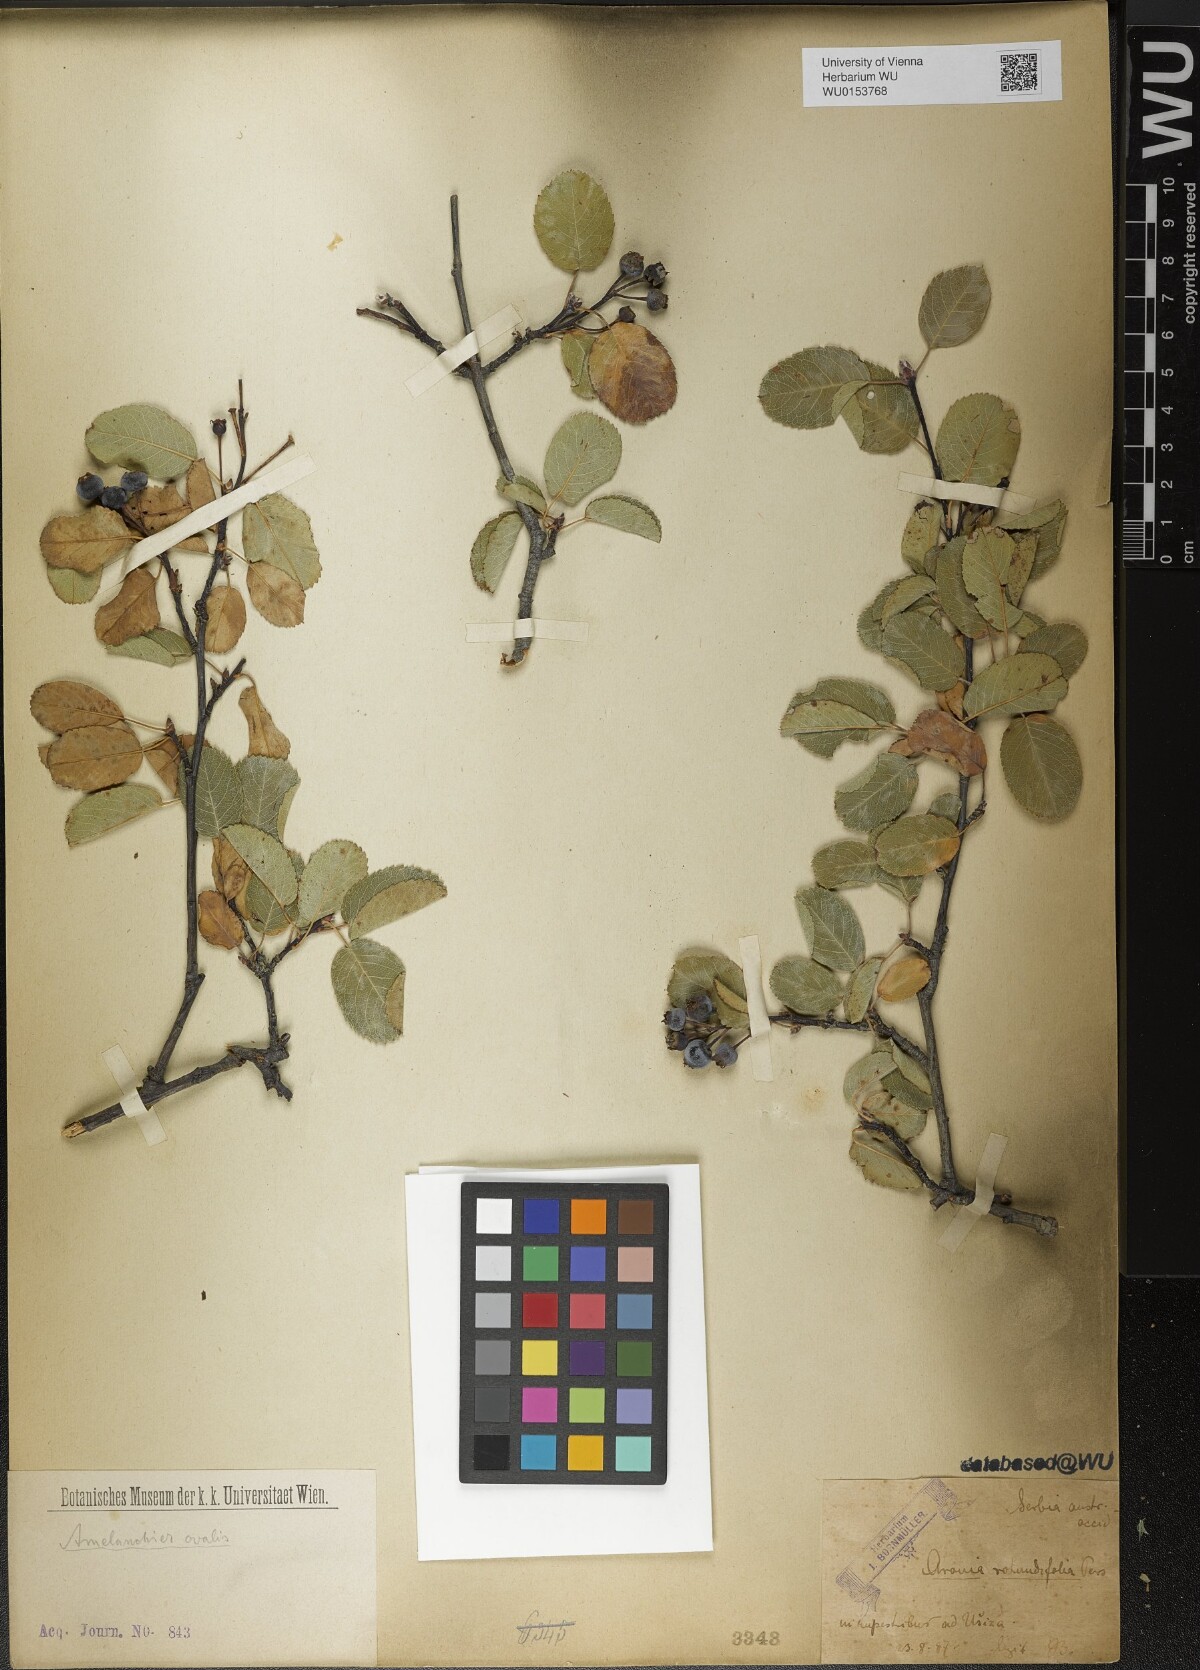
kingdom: Plantae
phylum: Tracheophyta
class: Magnoliopsida
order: Rosales
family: Rosaceae
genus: Amelanchier
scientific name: Amelanchier ovalis
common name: Serviceberry
